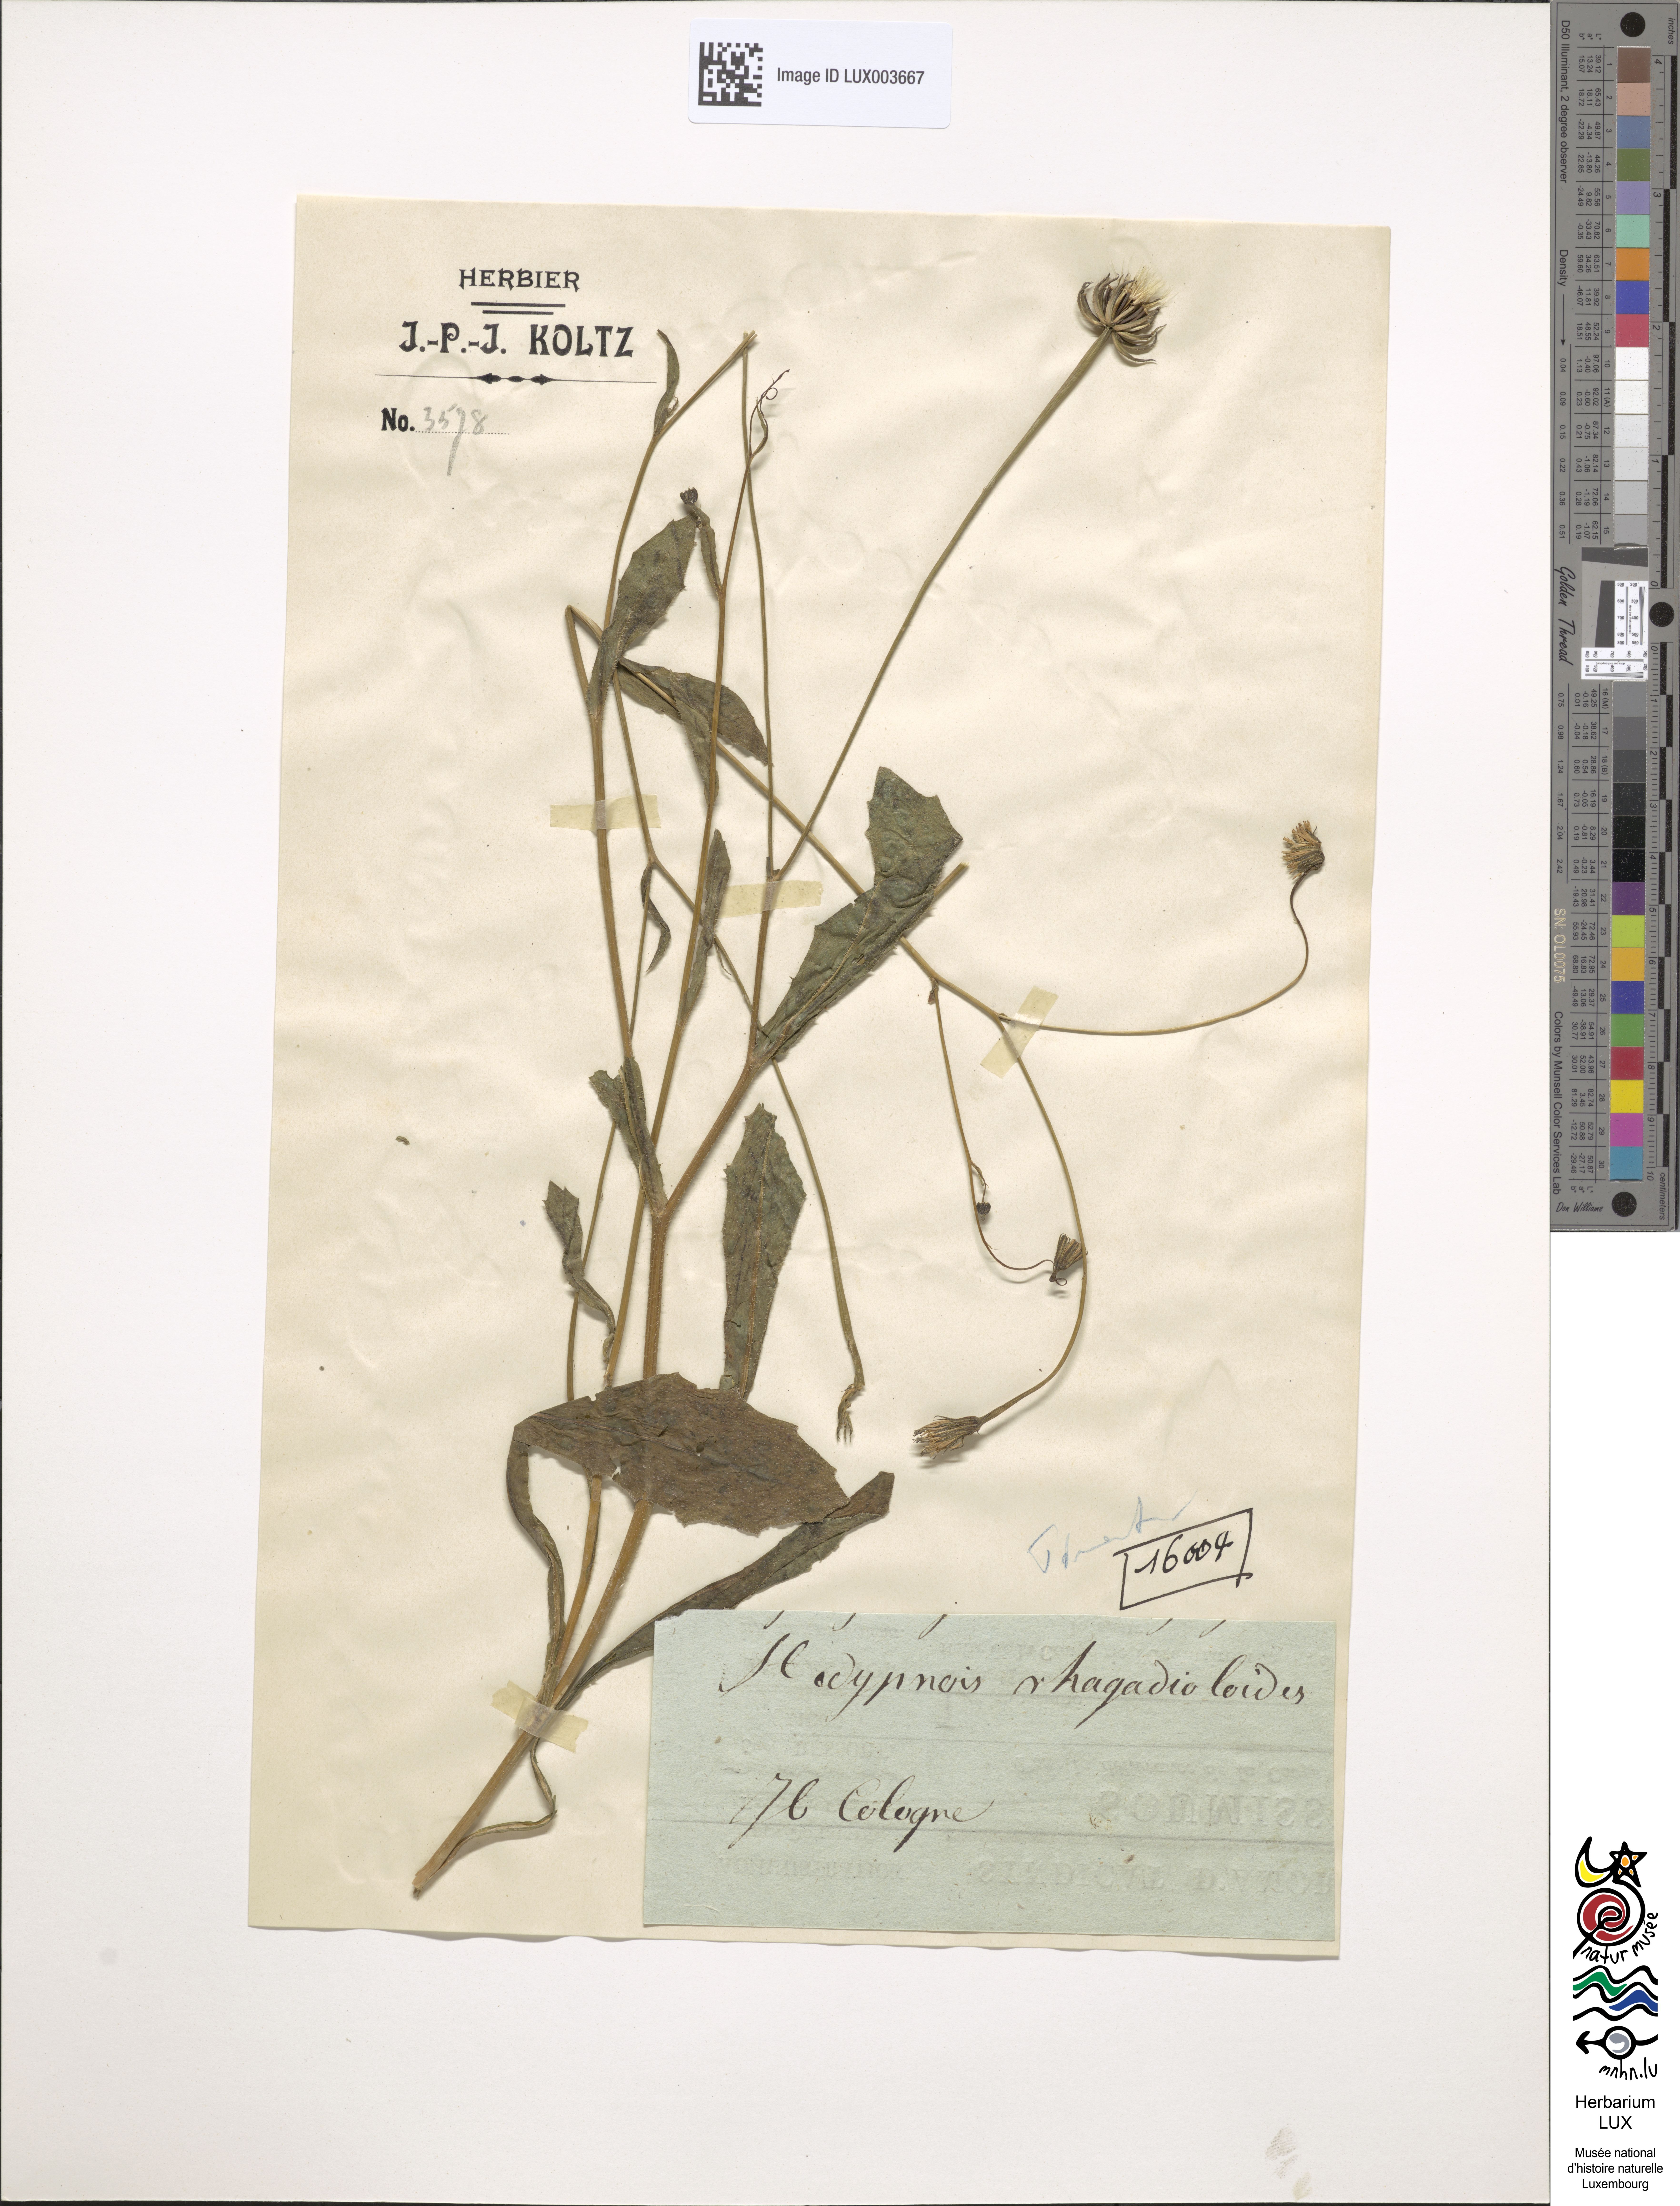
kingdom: Plantae
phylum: Tracheophyta
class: Magnoliopsida
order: Asterales
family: Asteraceae
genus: Hedypnois
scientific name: Hedypnois rhagadioloides
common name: Cretan weed
